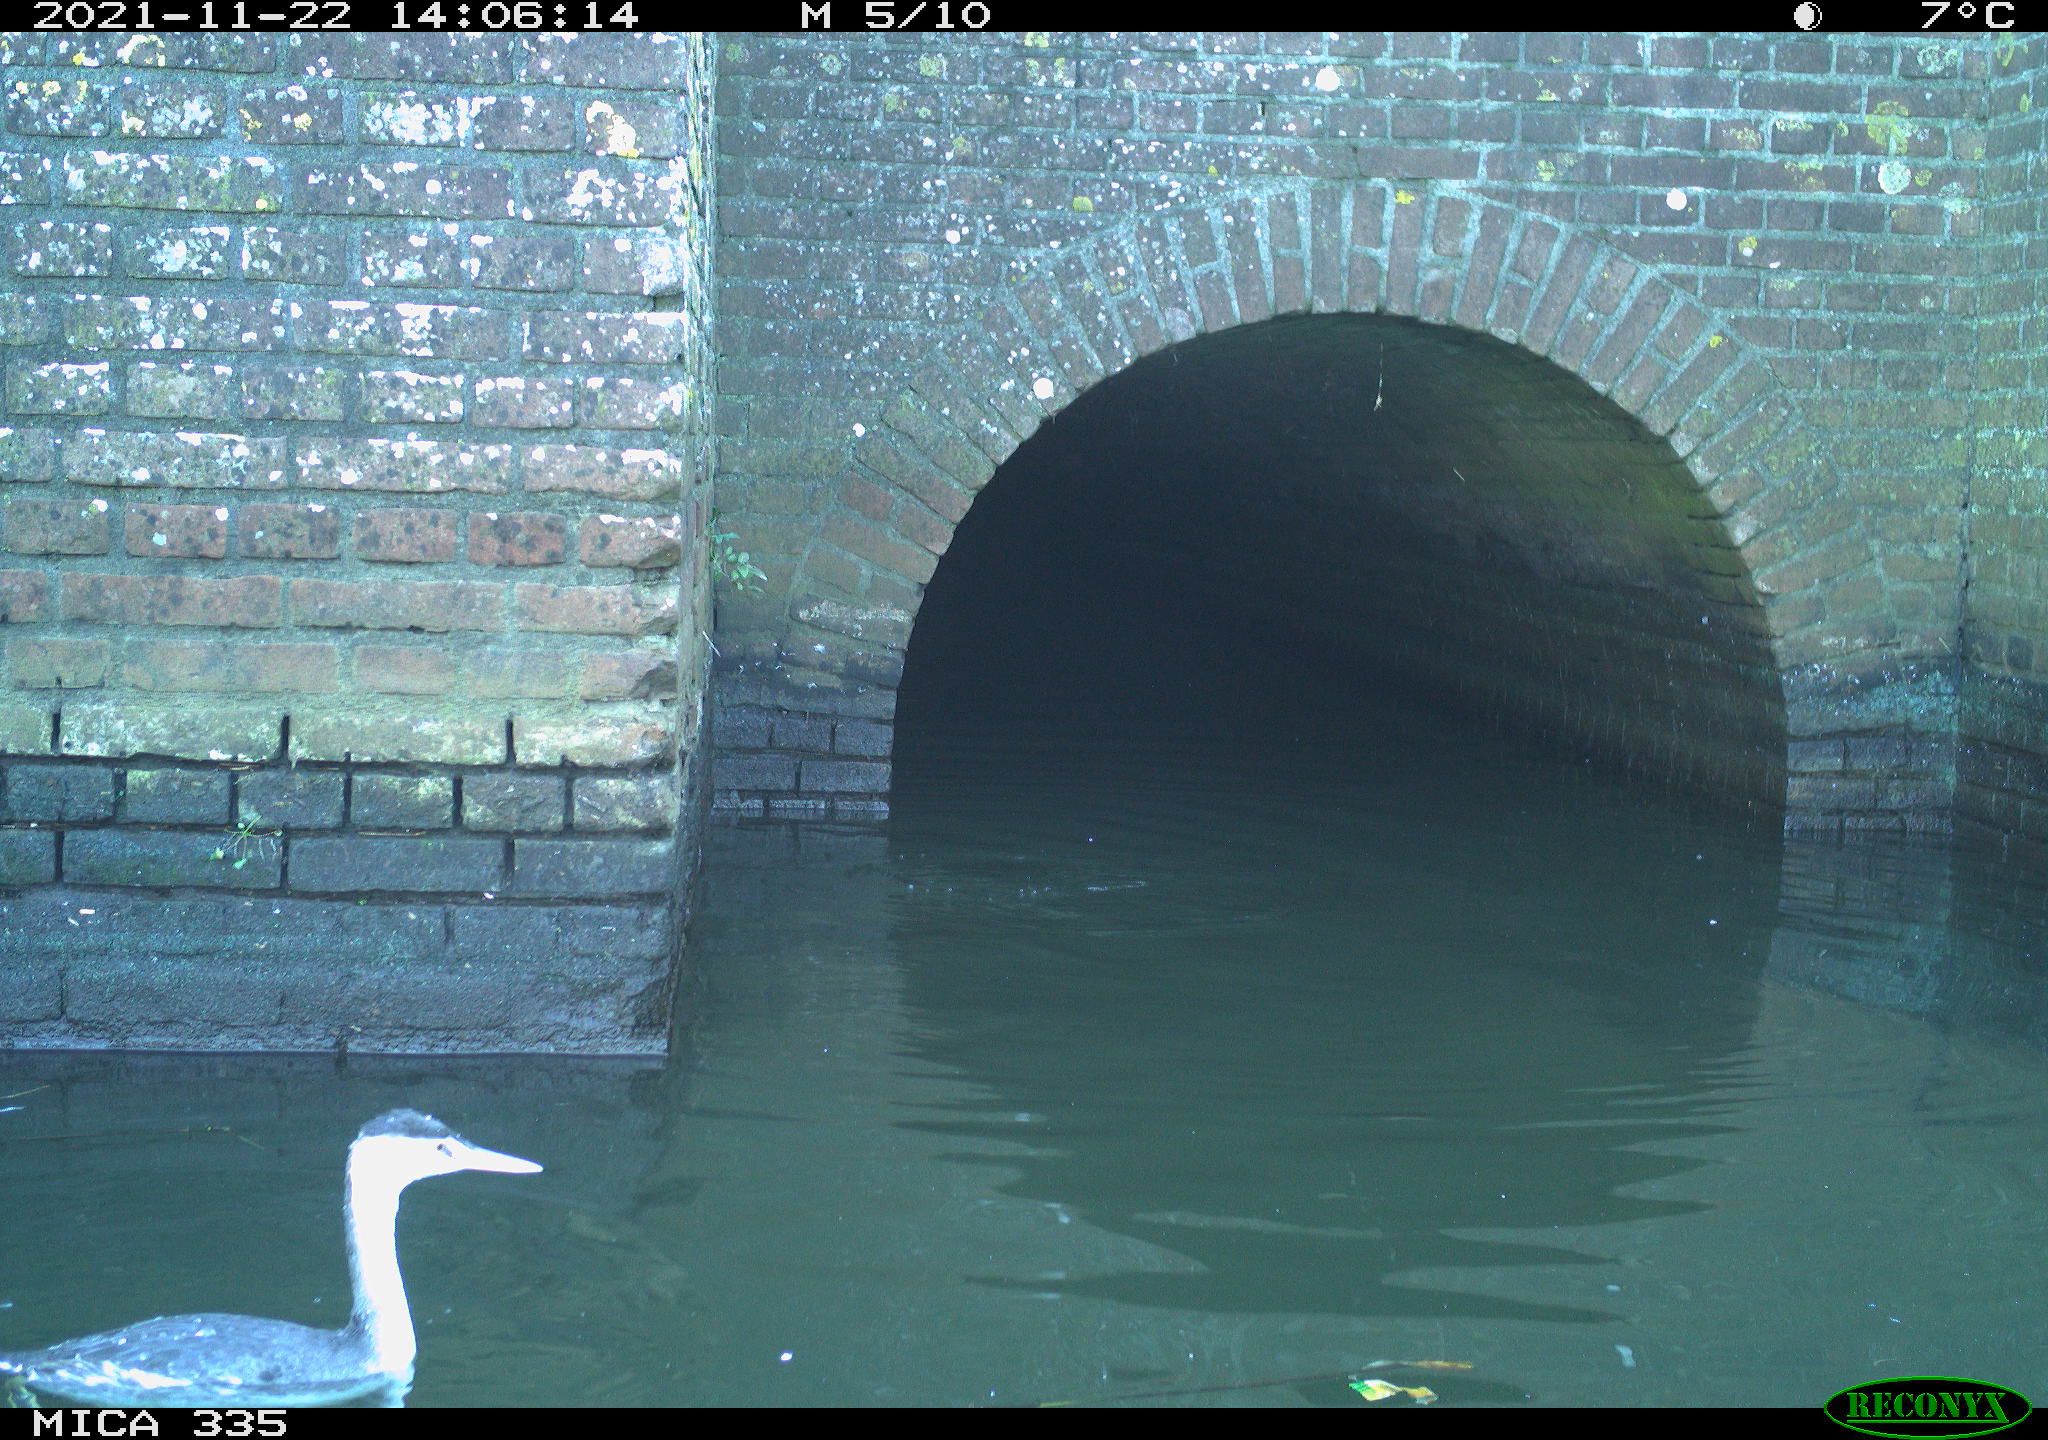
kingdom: Animalia
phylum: Chordata
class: Aves
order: Podicipediformes
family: Podicipedidae
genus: Podiceps
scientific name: Podiceps cristatus
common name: Great crested grebe
